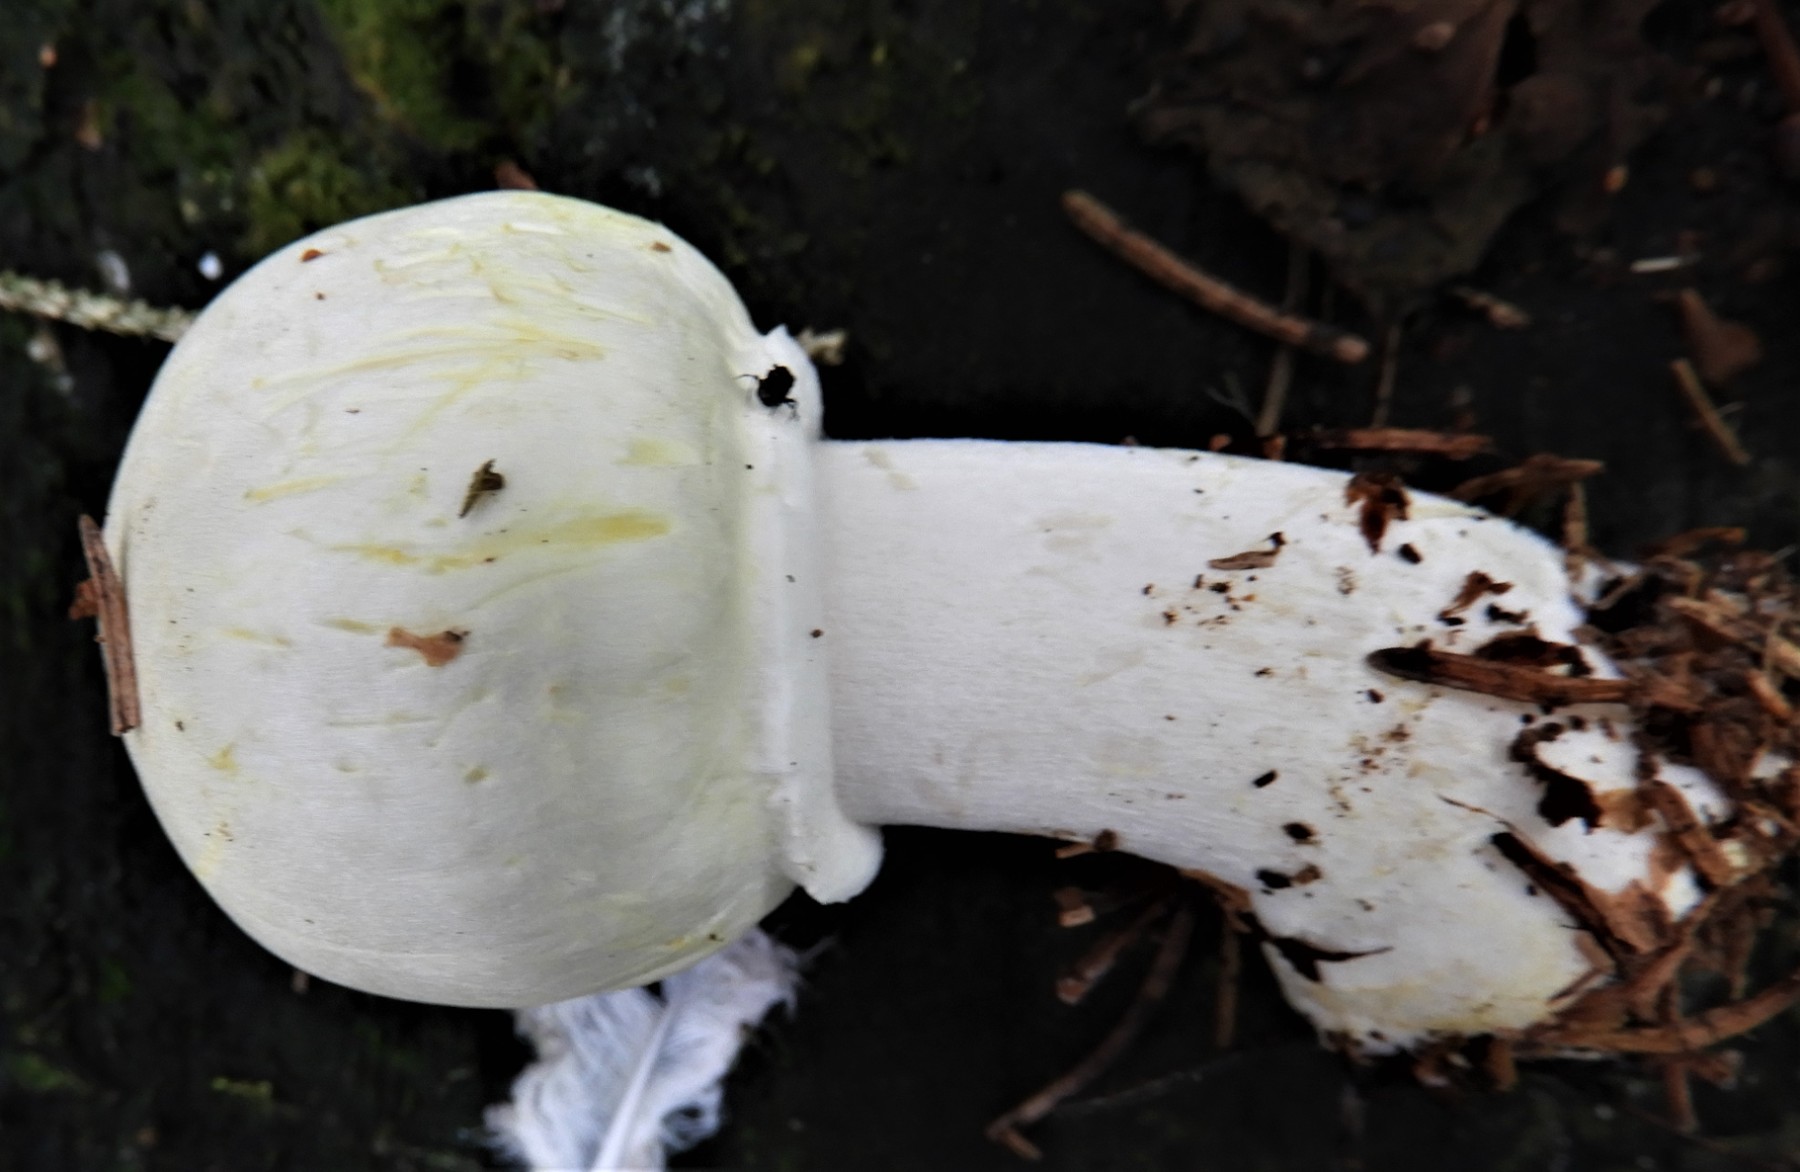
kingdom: Fungi
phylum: Basidiomycota
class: Agaricomycetes
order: Agaricales
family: Agaricaceae
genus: Agaricus
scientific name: Agaricus sylvicola
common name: gulhvid champignon
